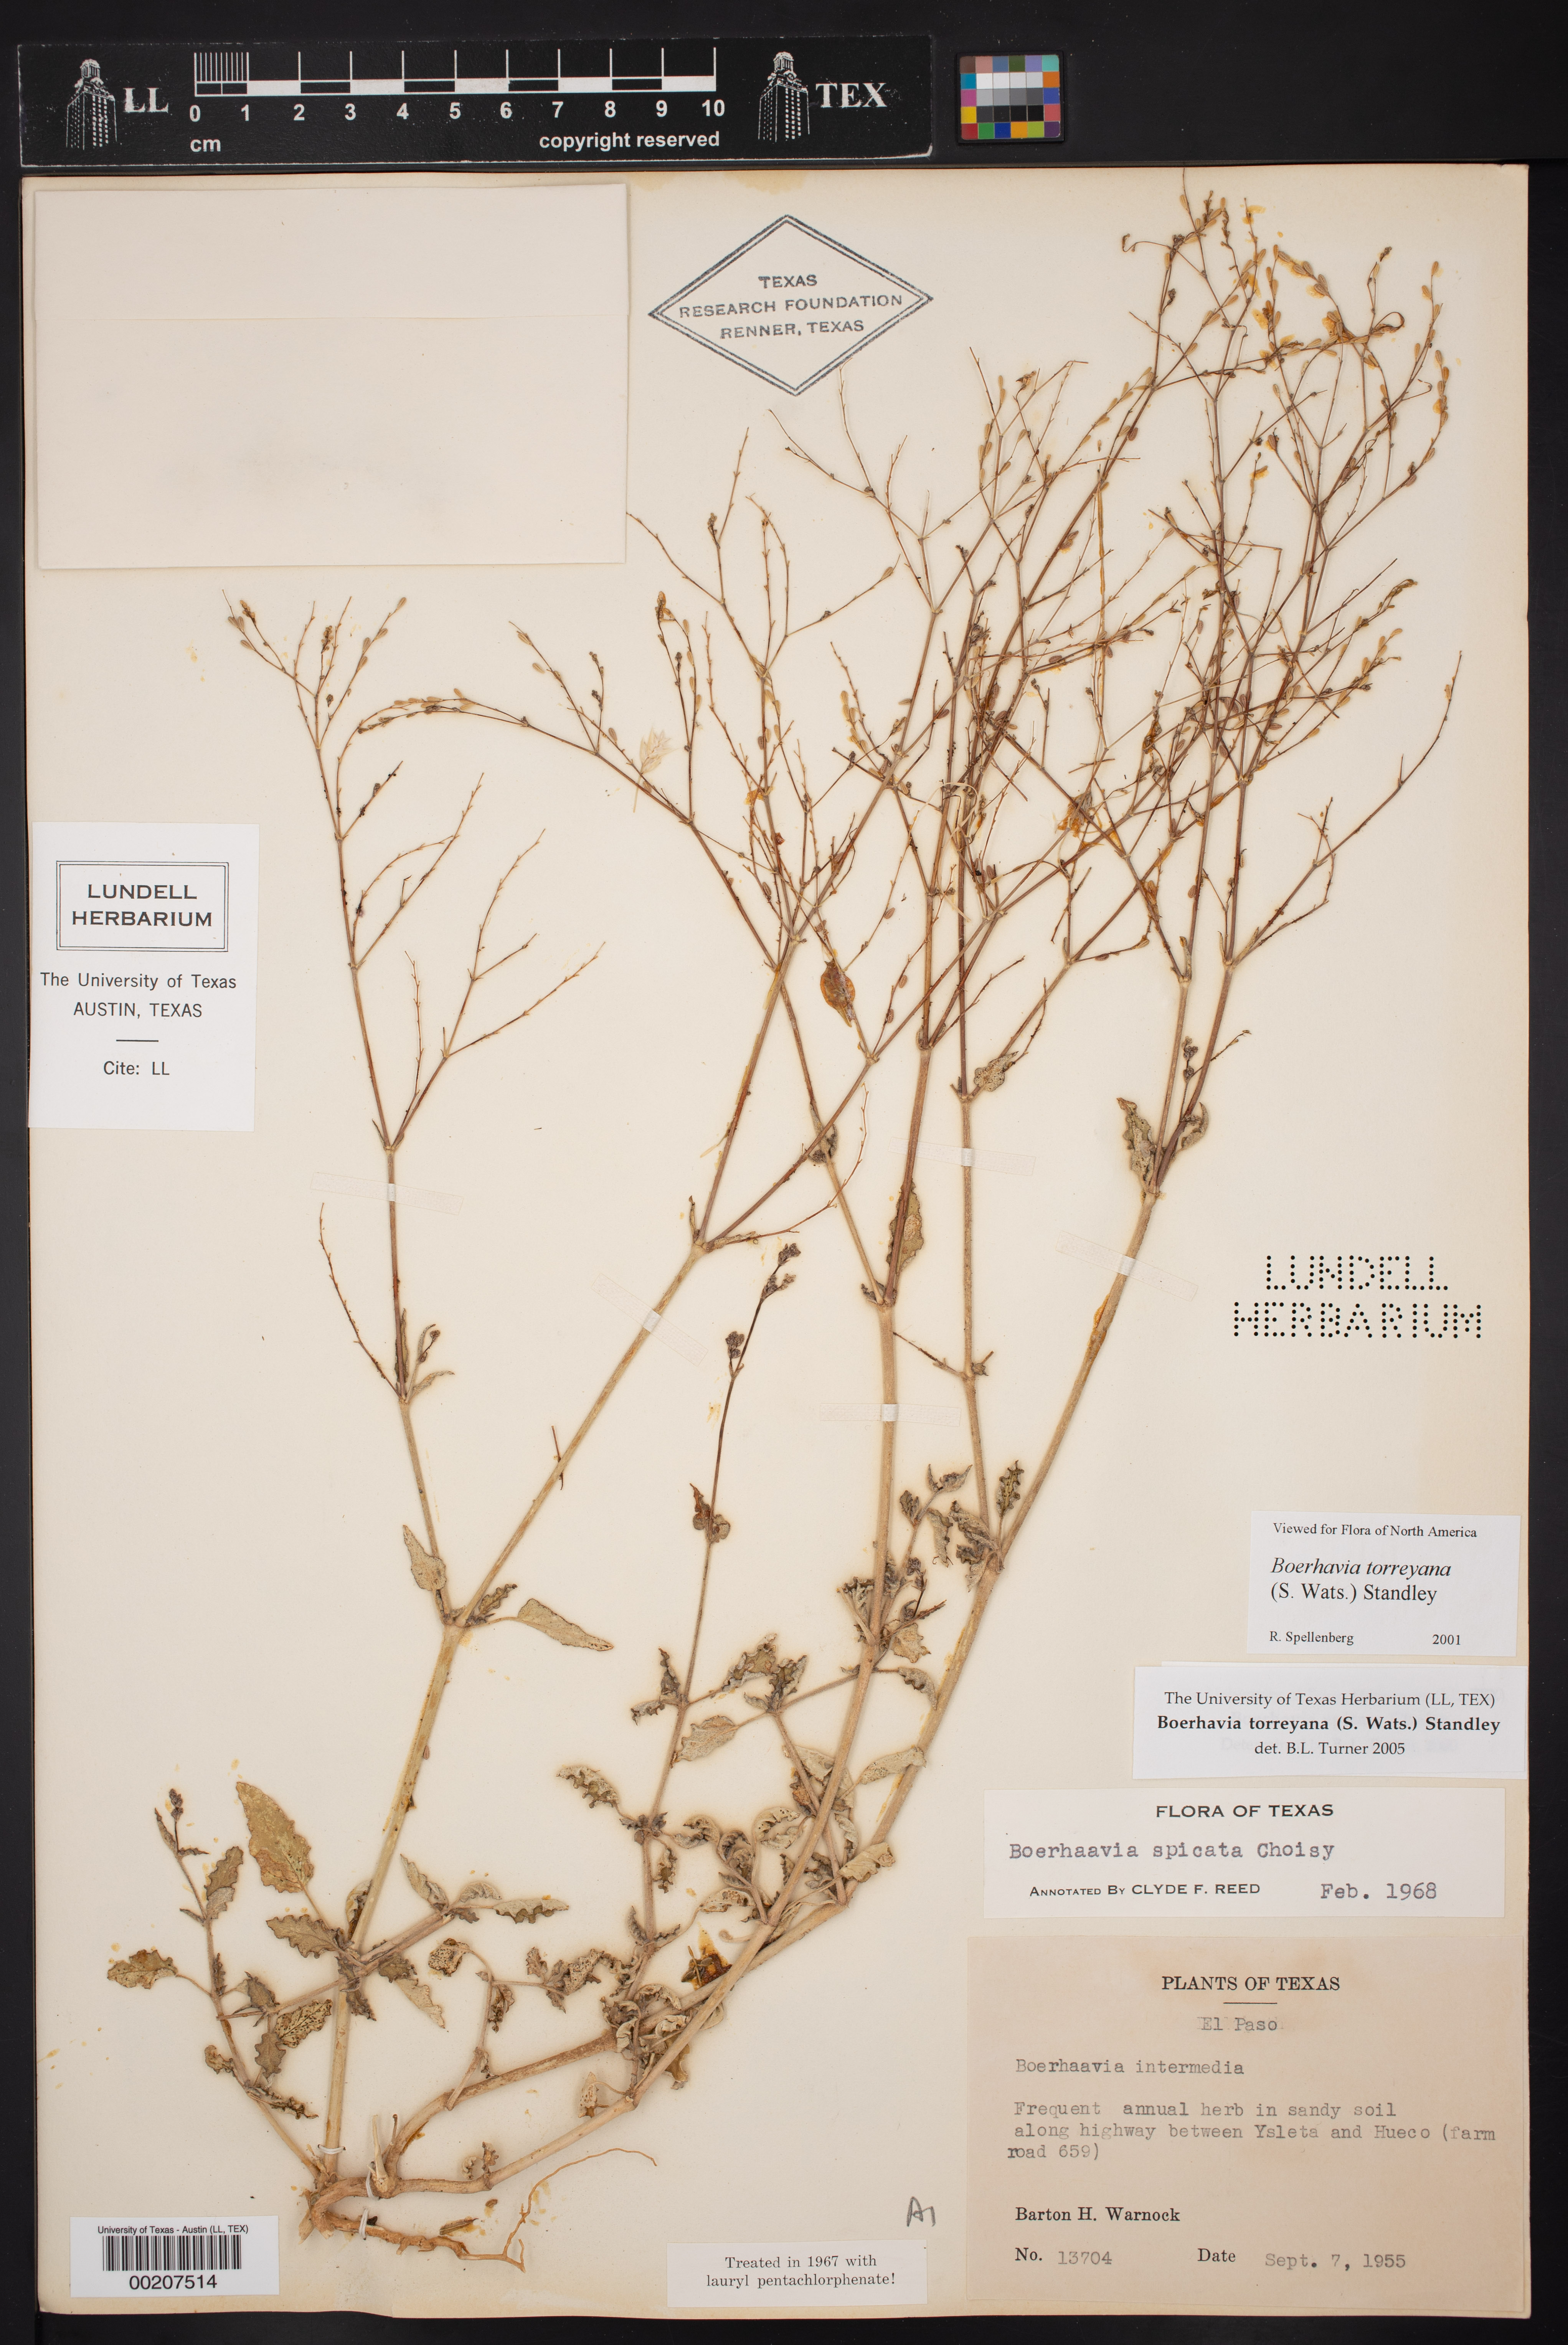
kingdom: Plantae
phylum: Tracheophyta
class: Magnoliopsida
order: Caryophyllales
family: Nyctaginaceae
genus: Boerhavia
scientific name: Boerhavia torreyana
